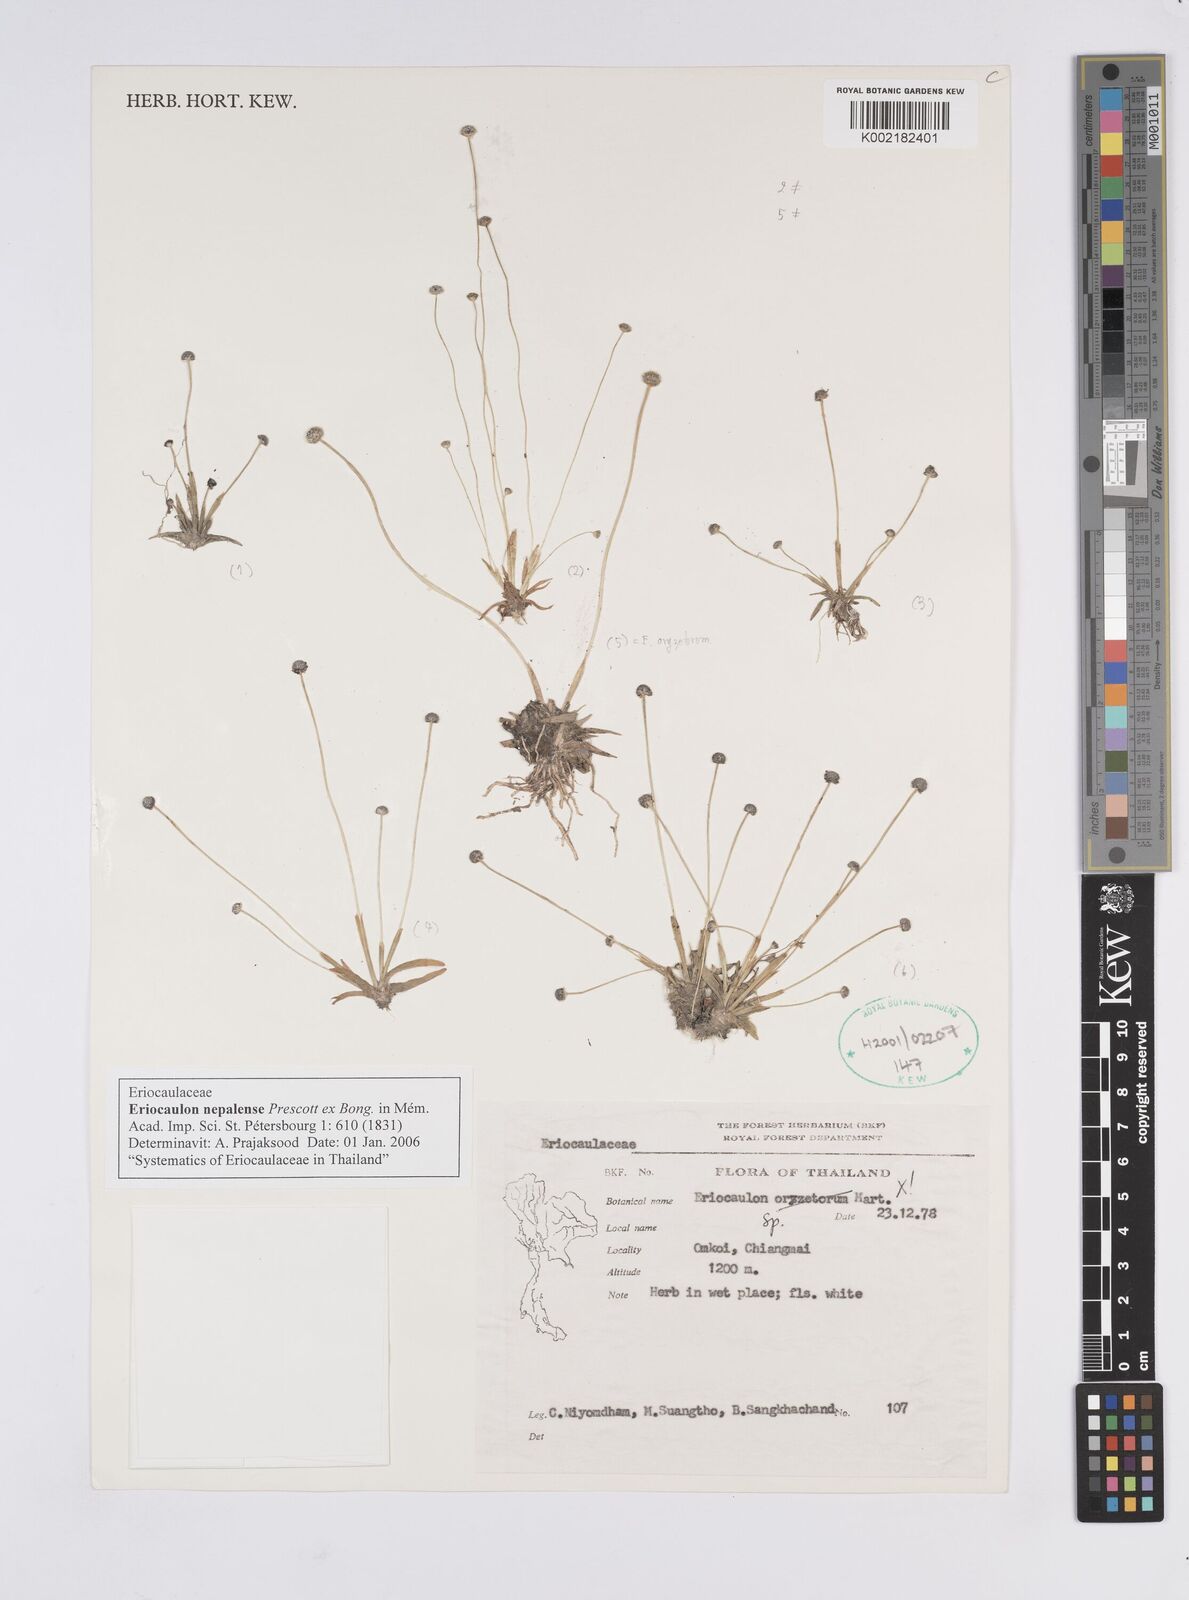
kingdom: Plantae
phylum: Tracheophyta
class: Liliopsida
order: Poales
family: Eriocaulaceae
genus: Eriocaulon
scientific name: Eriocaulon nepalense
